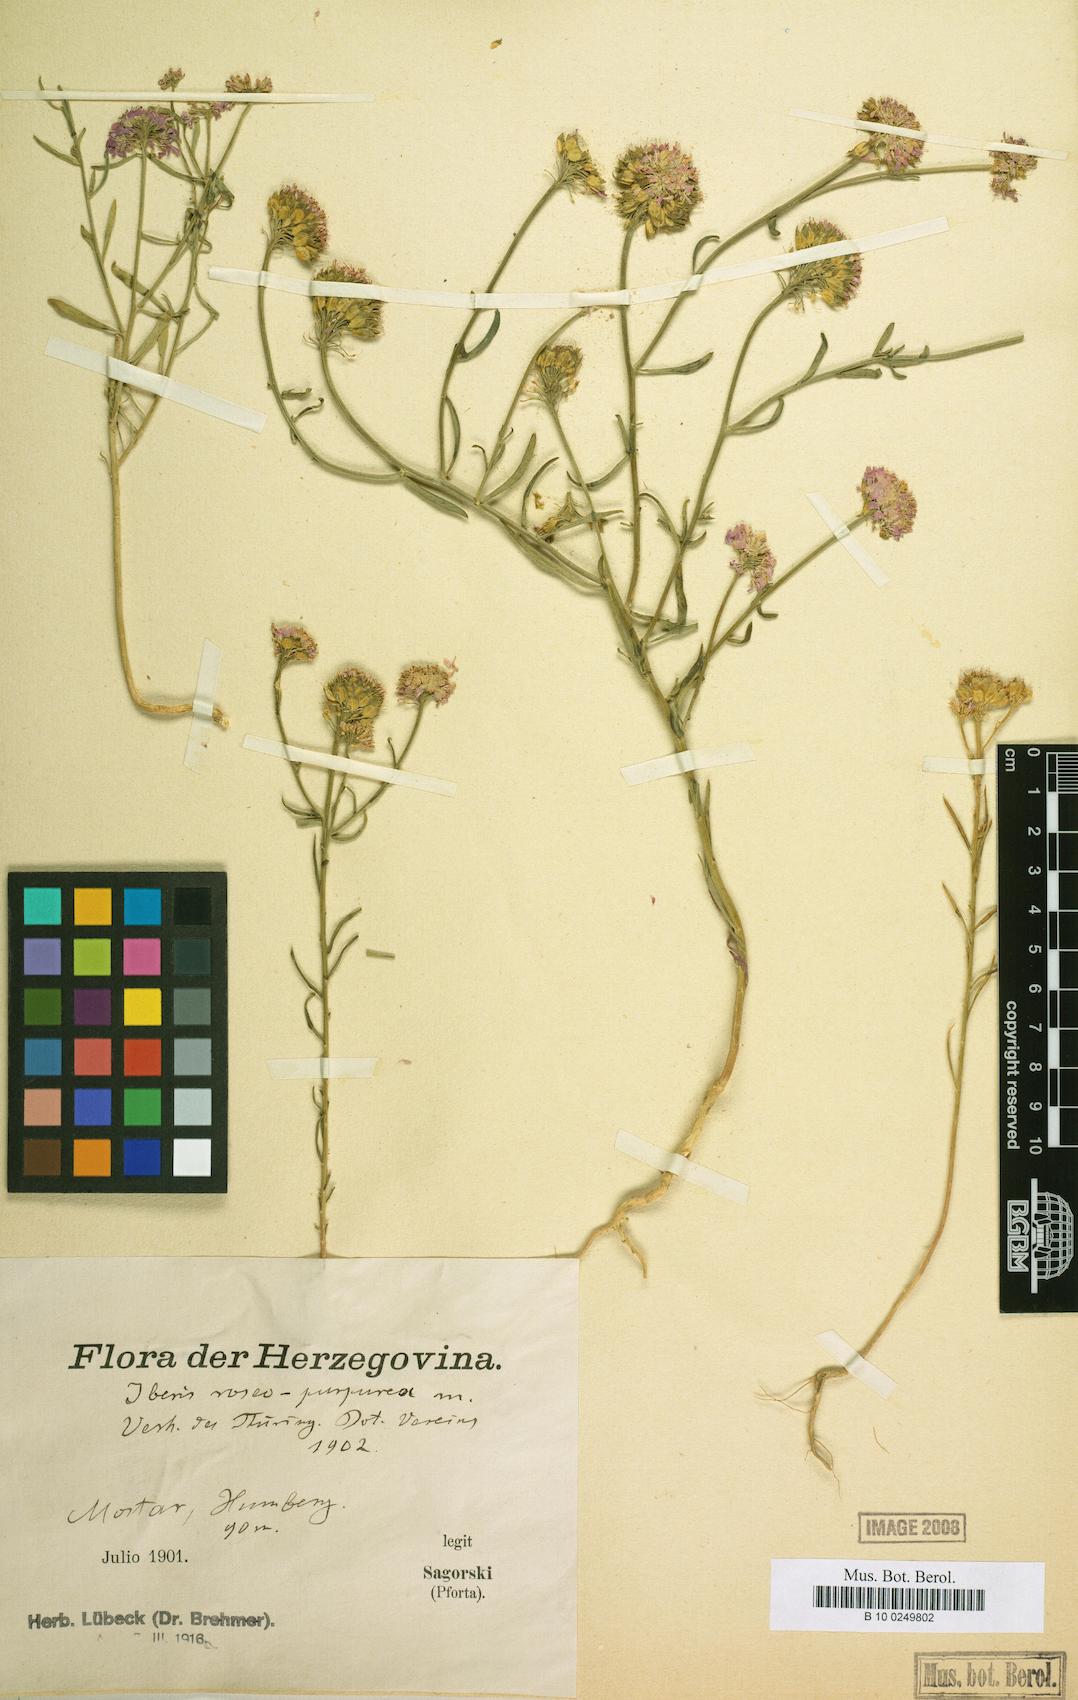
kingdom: Plantae
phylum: Tracheophyta
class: Magnoliopsida
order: Brassicales
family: Brassicaceae
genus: Iberis
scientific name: Iberis umbellata
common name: Globe candytuft
